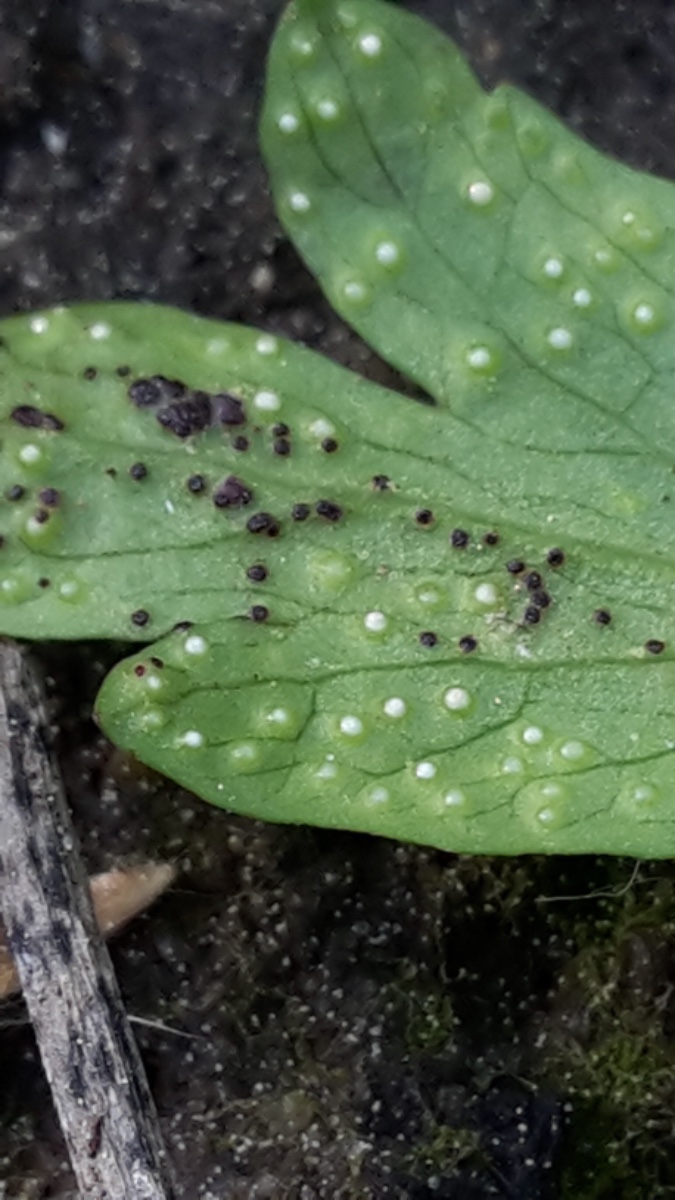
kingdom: Fungi
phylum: Chytridiomycota
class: Chytridiomycetes
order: Chytridiales
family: Synchytriaceae
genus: Synchytrium
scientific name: Synchytrium anemones
